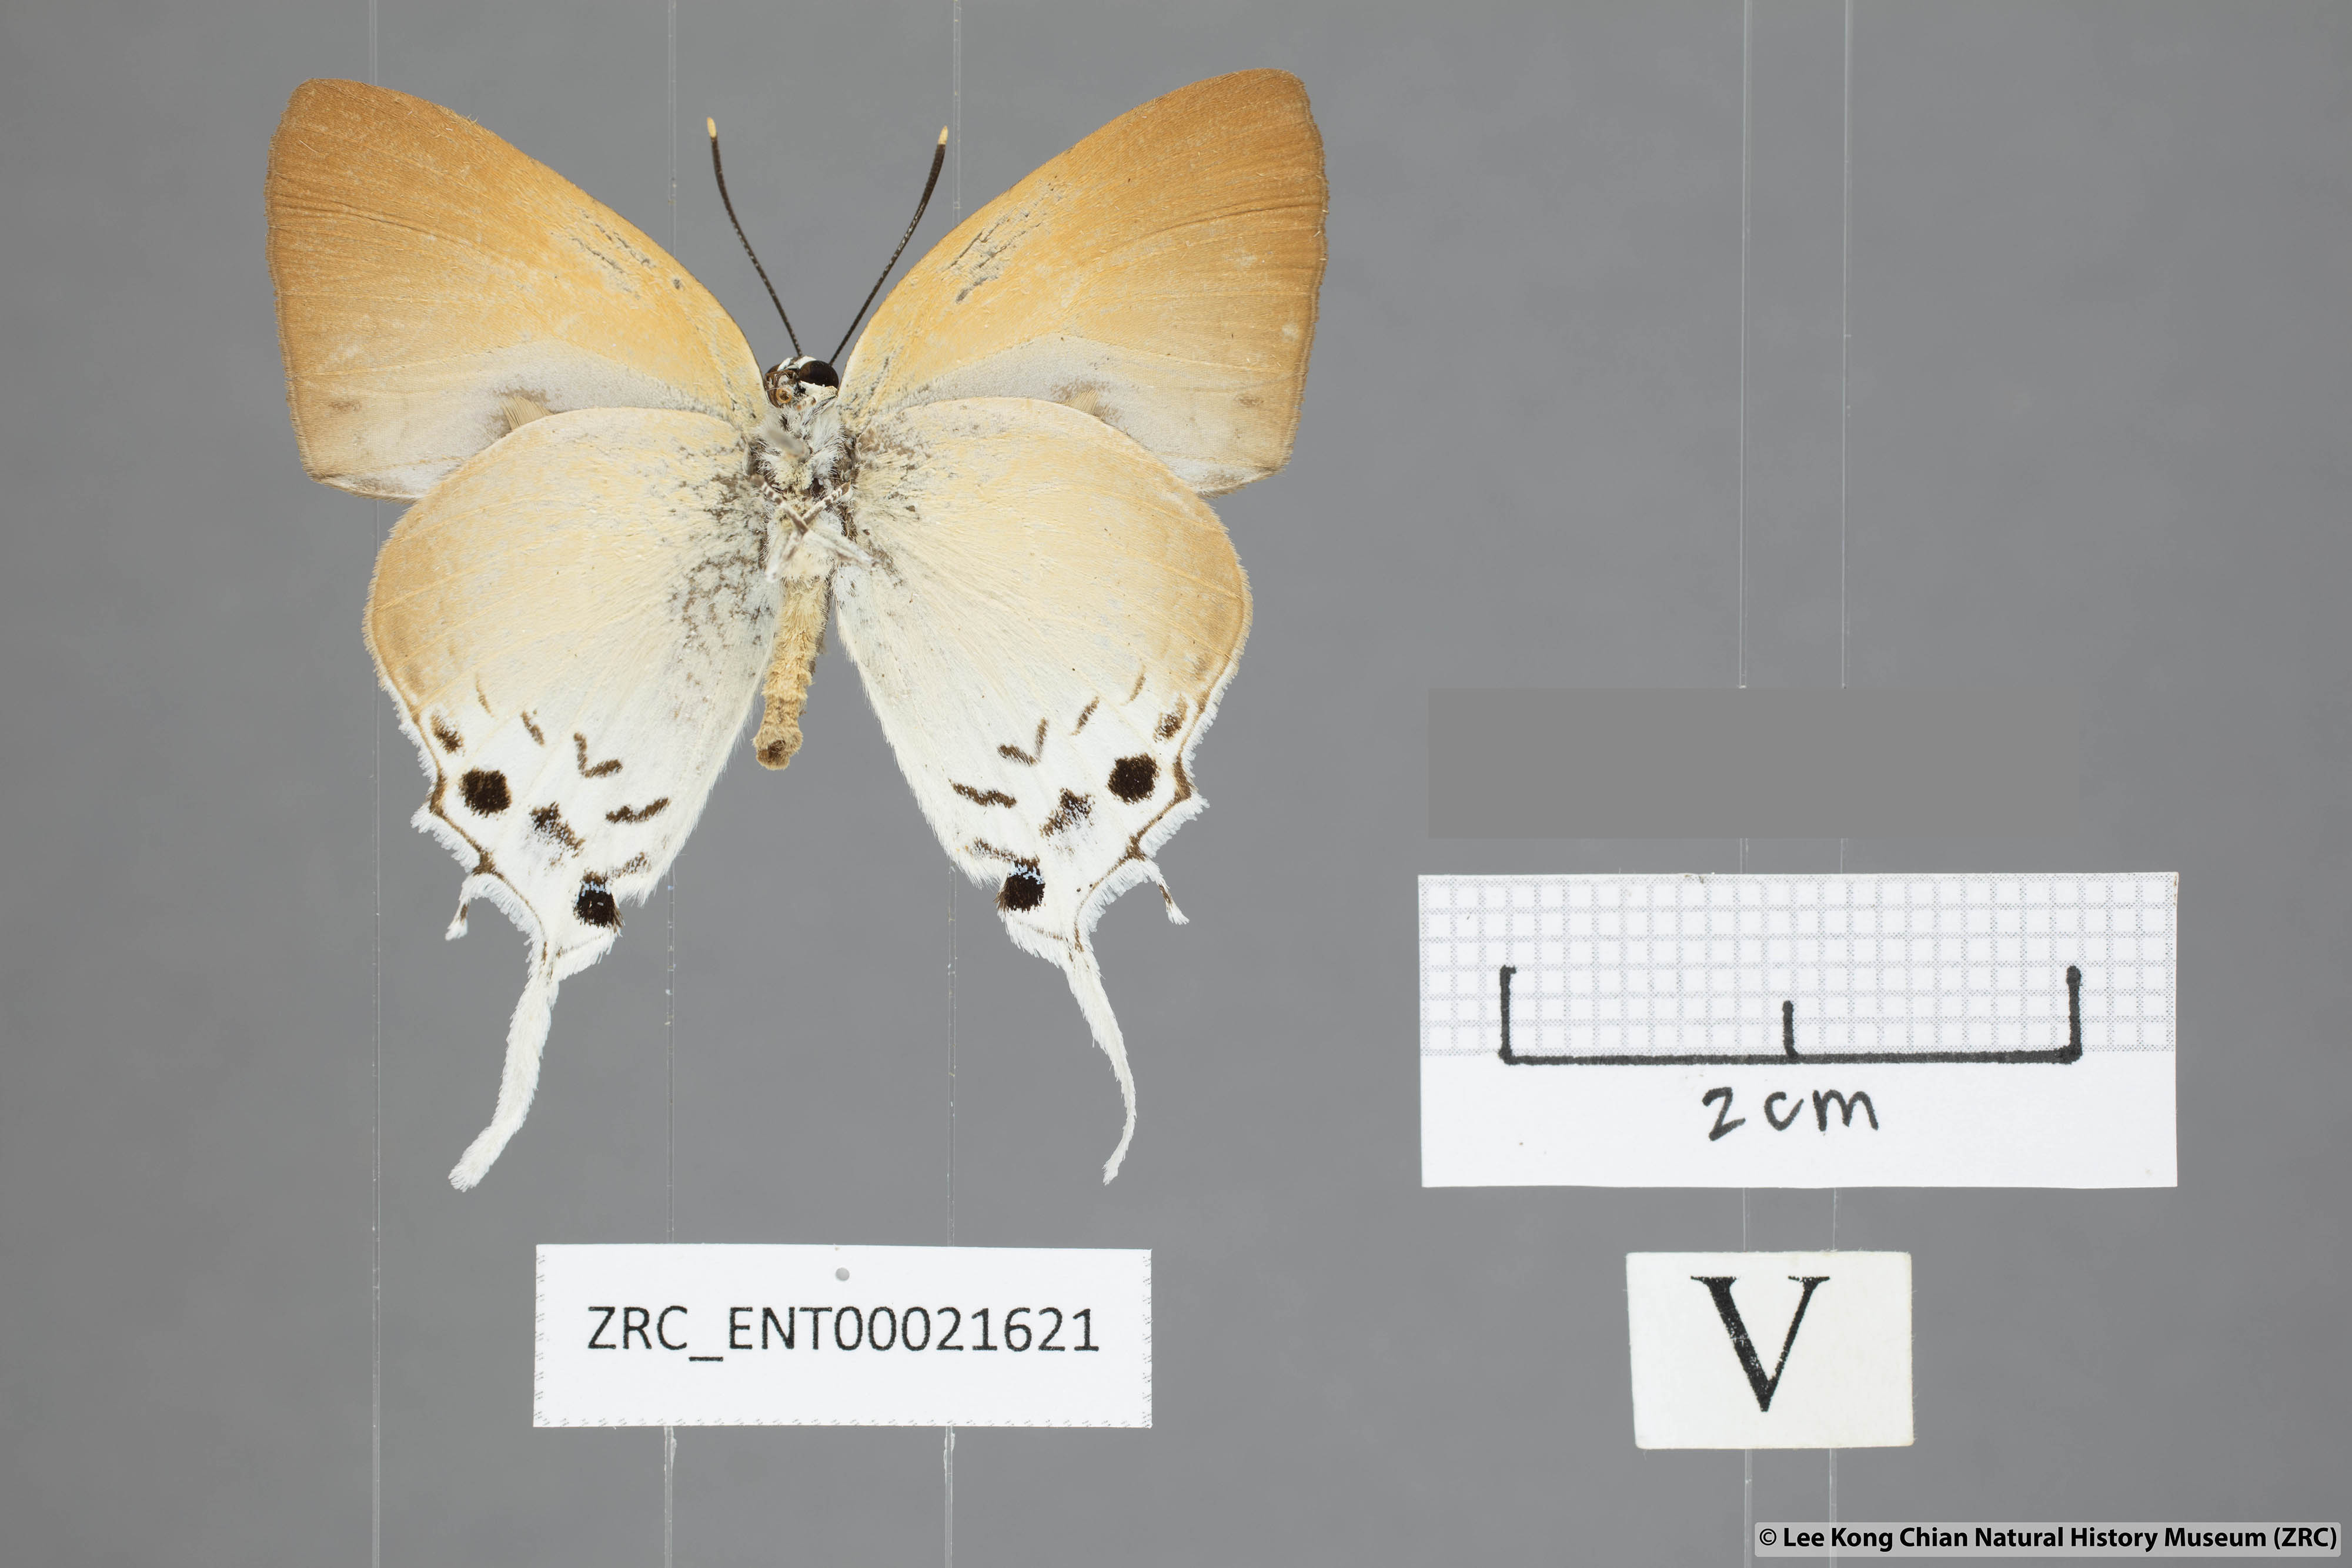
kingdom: Animalia
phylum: Arthropoda
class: Insecta
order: Lepidoptera
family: Lycaenidae
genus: Mantoides
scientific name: Mantoides gama
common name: Distant's imperial
